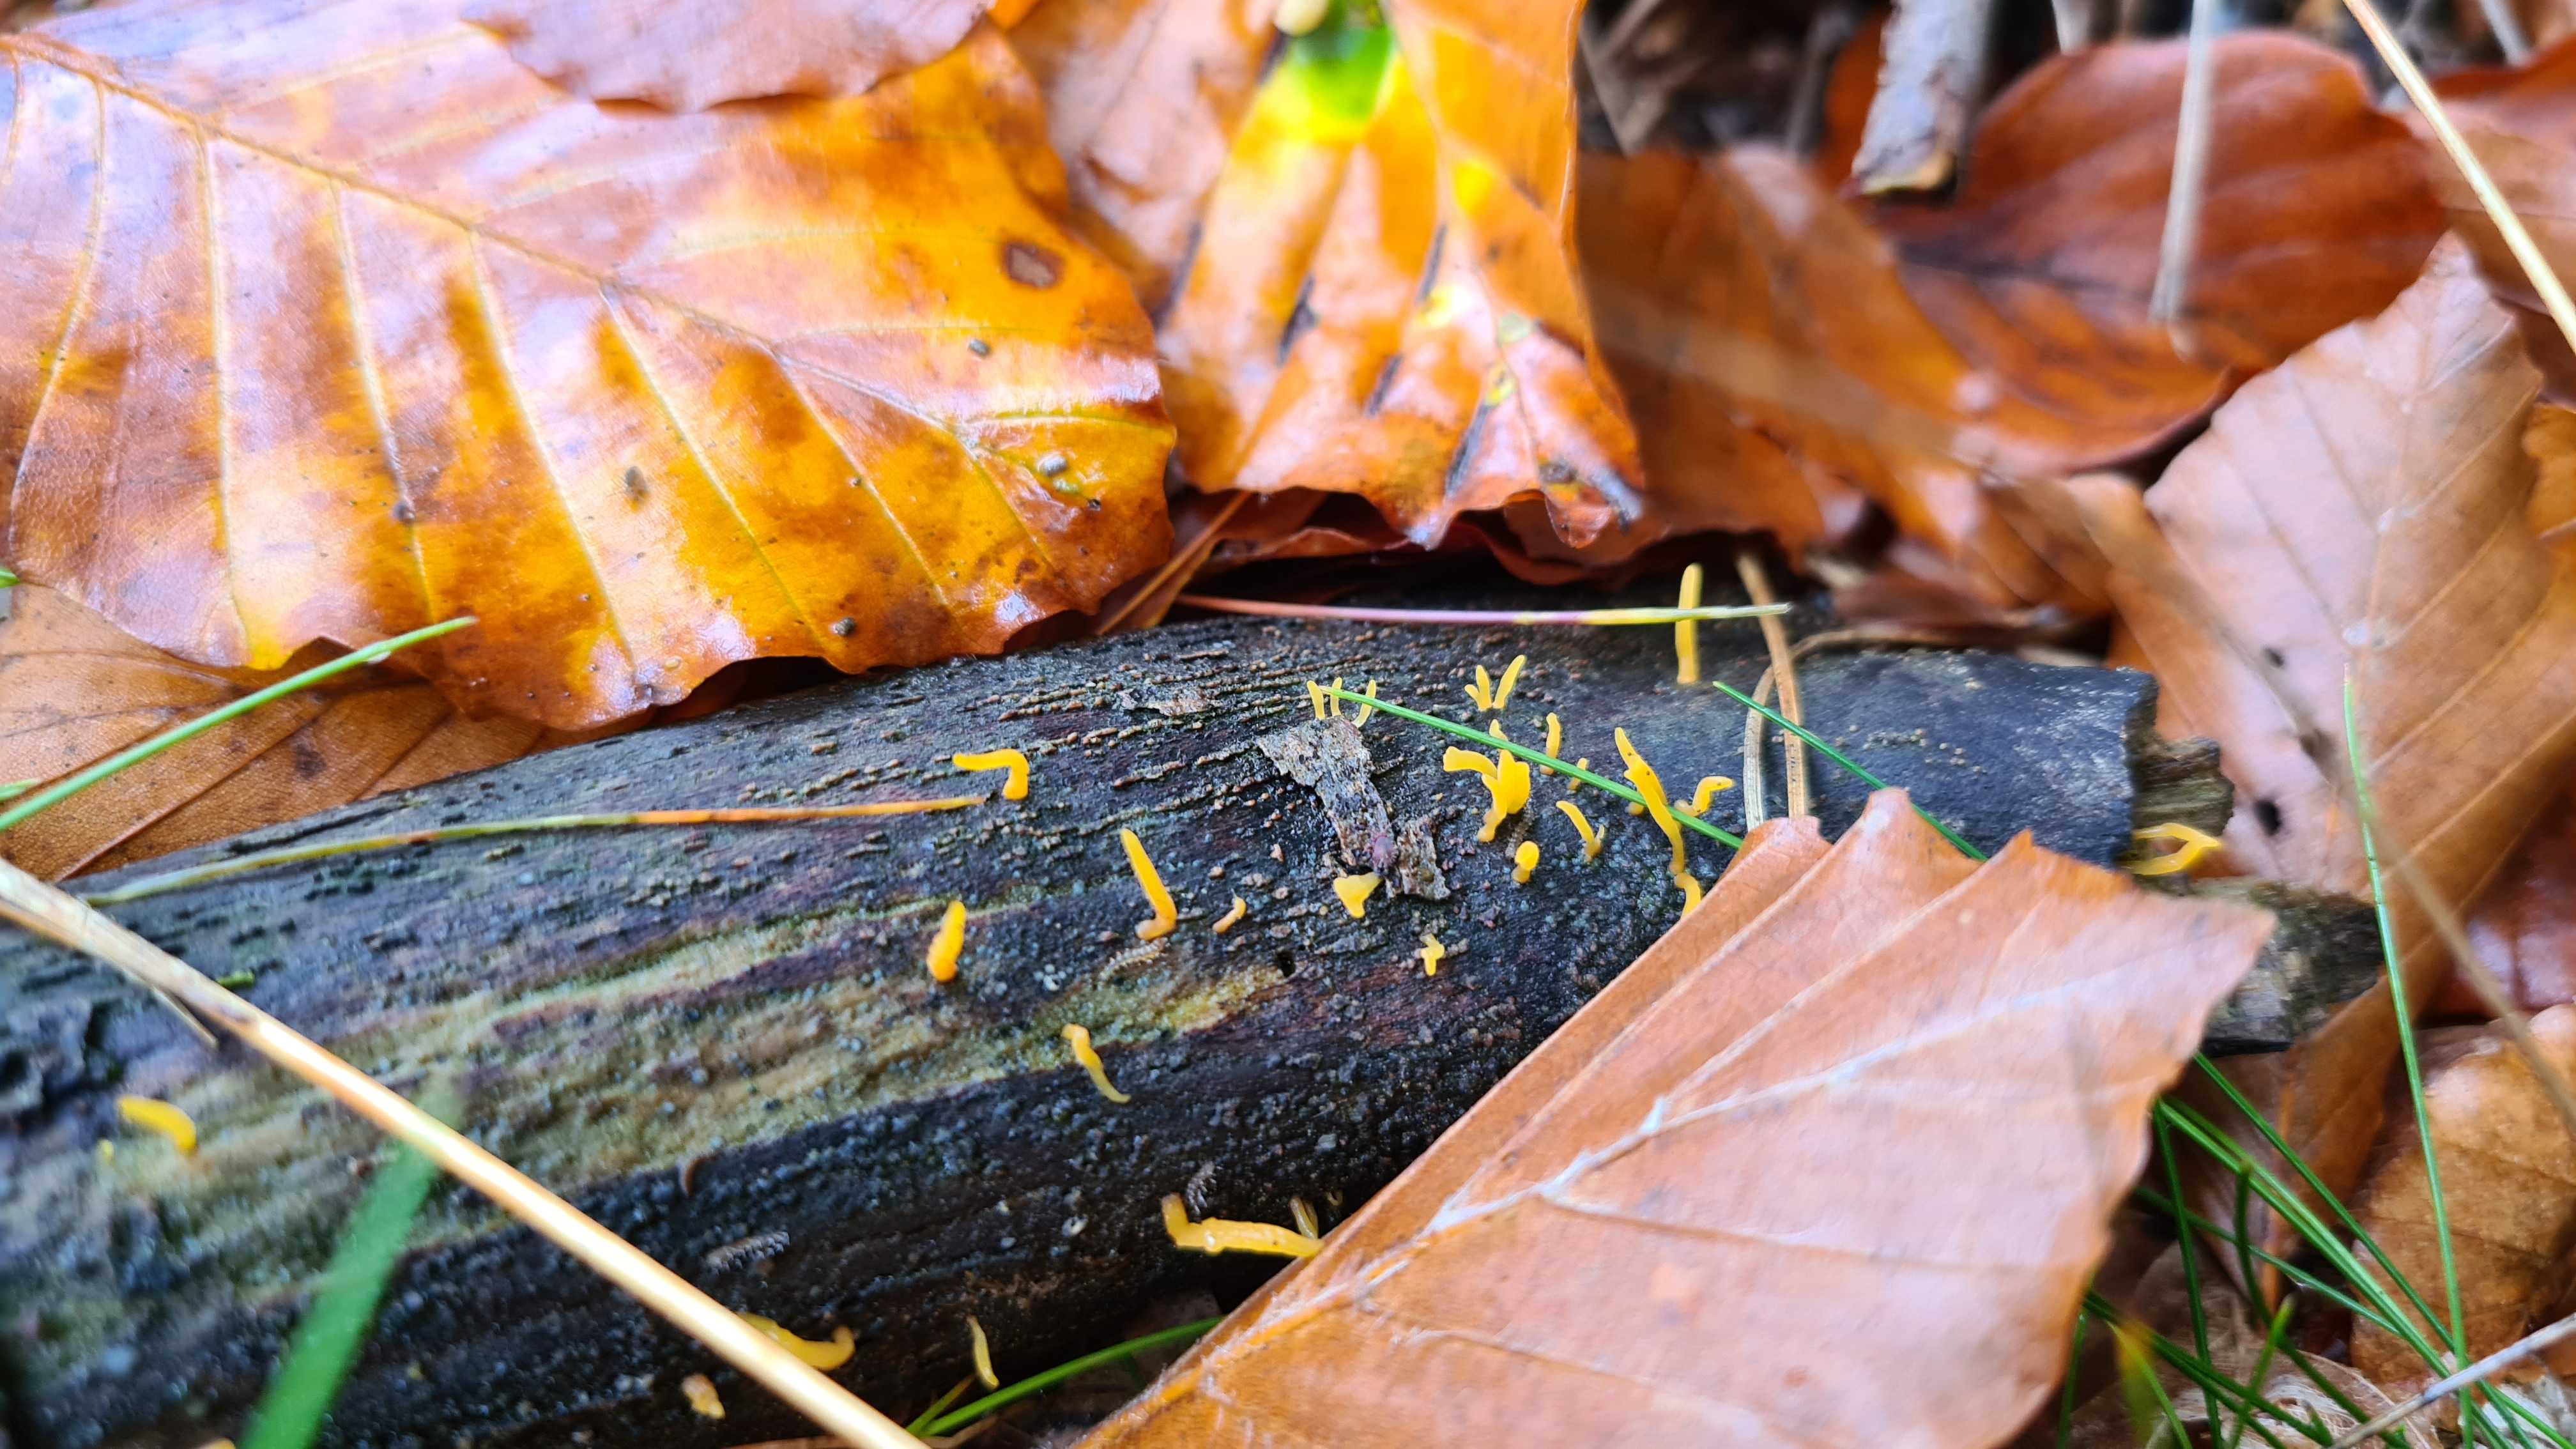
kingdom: Fungi
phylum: Basidiomycota
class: Dacrymycetes
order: Dacrymycetales
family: Dacrymycetaceae
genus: Calocera
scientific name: Calocera cornea
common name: liden guldgaffel
